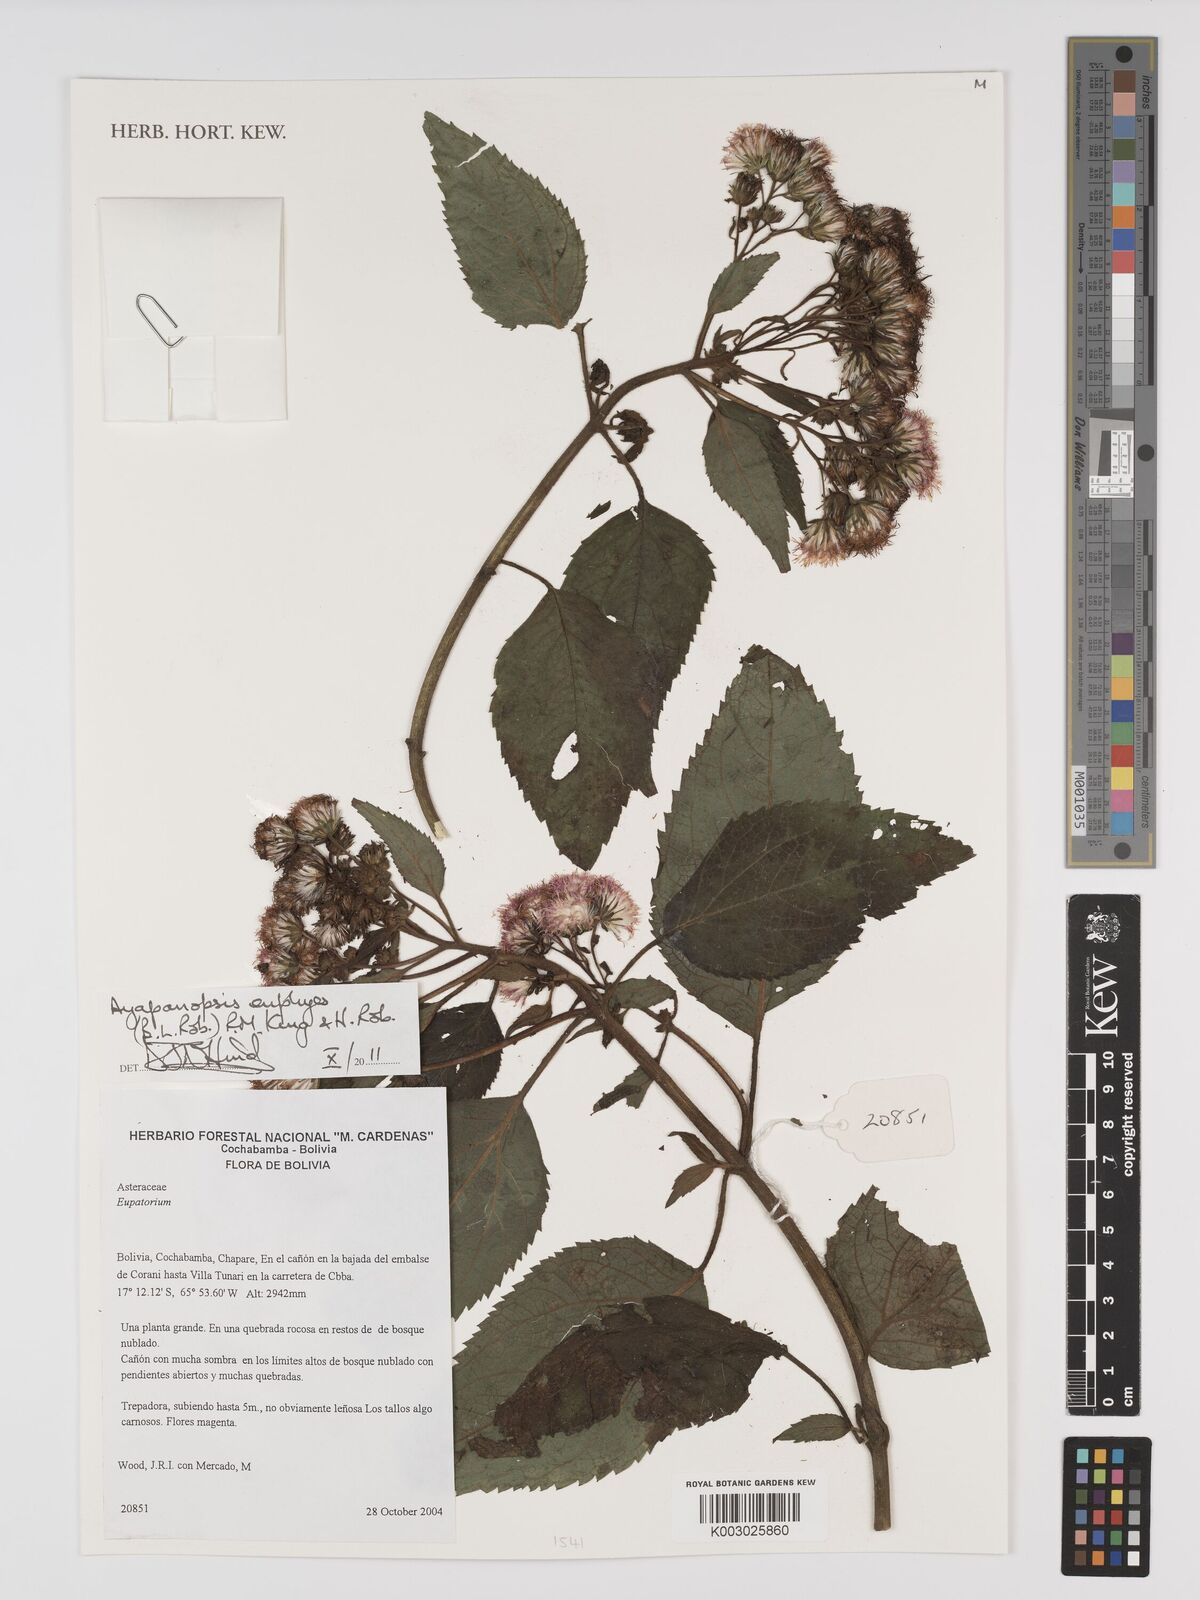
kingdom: Plantae
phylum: Tracheophyta
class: Magnoliopsida
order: Asterales
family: Asteraceae
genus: Ayapanopsis
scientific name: Ayapanopsis euphyes
